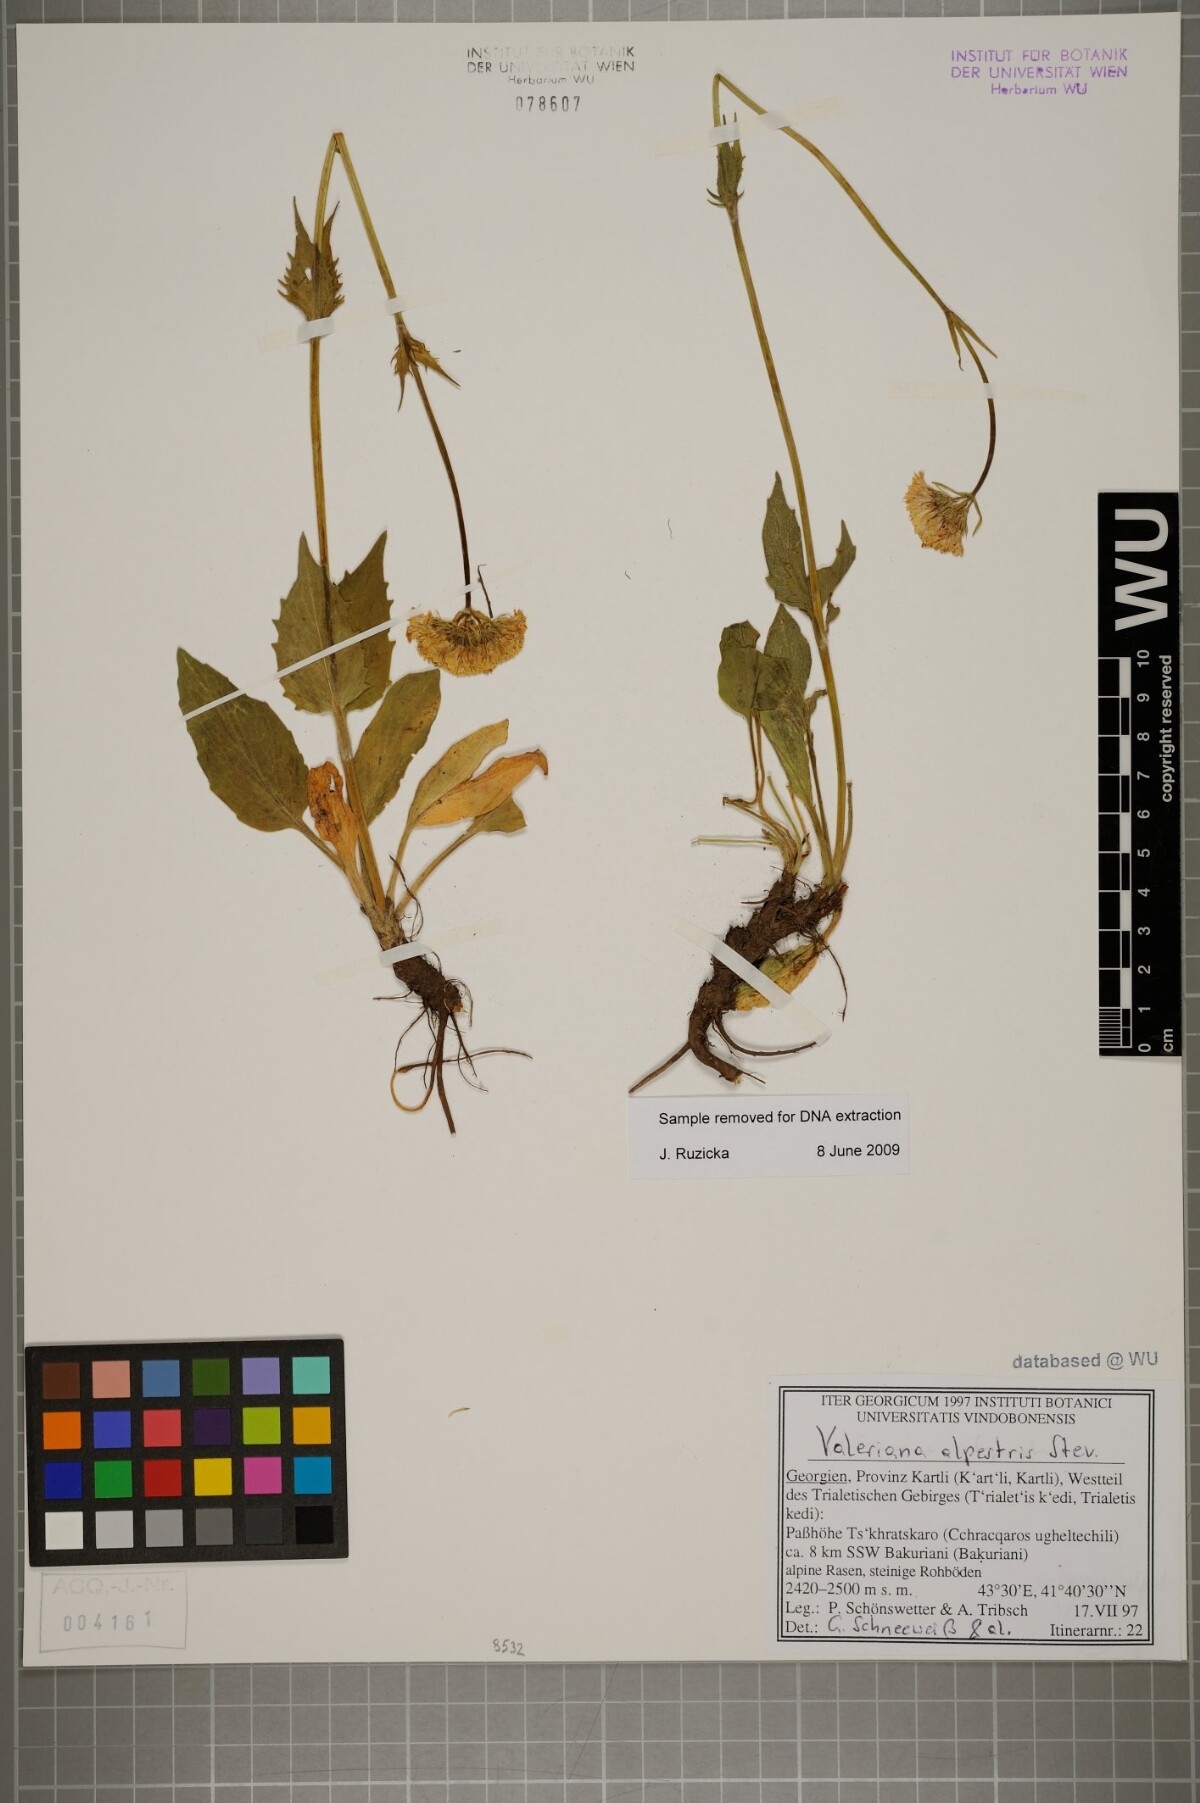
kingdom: Plantae
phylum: Tracheophyta
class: Magnoliopsida
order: Dipsacales
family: Caprifoliaceae
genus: Valeriana
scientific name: Valeriana alpestris
